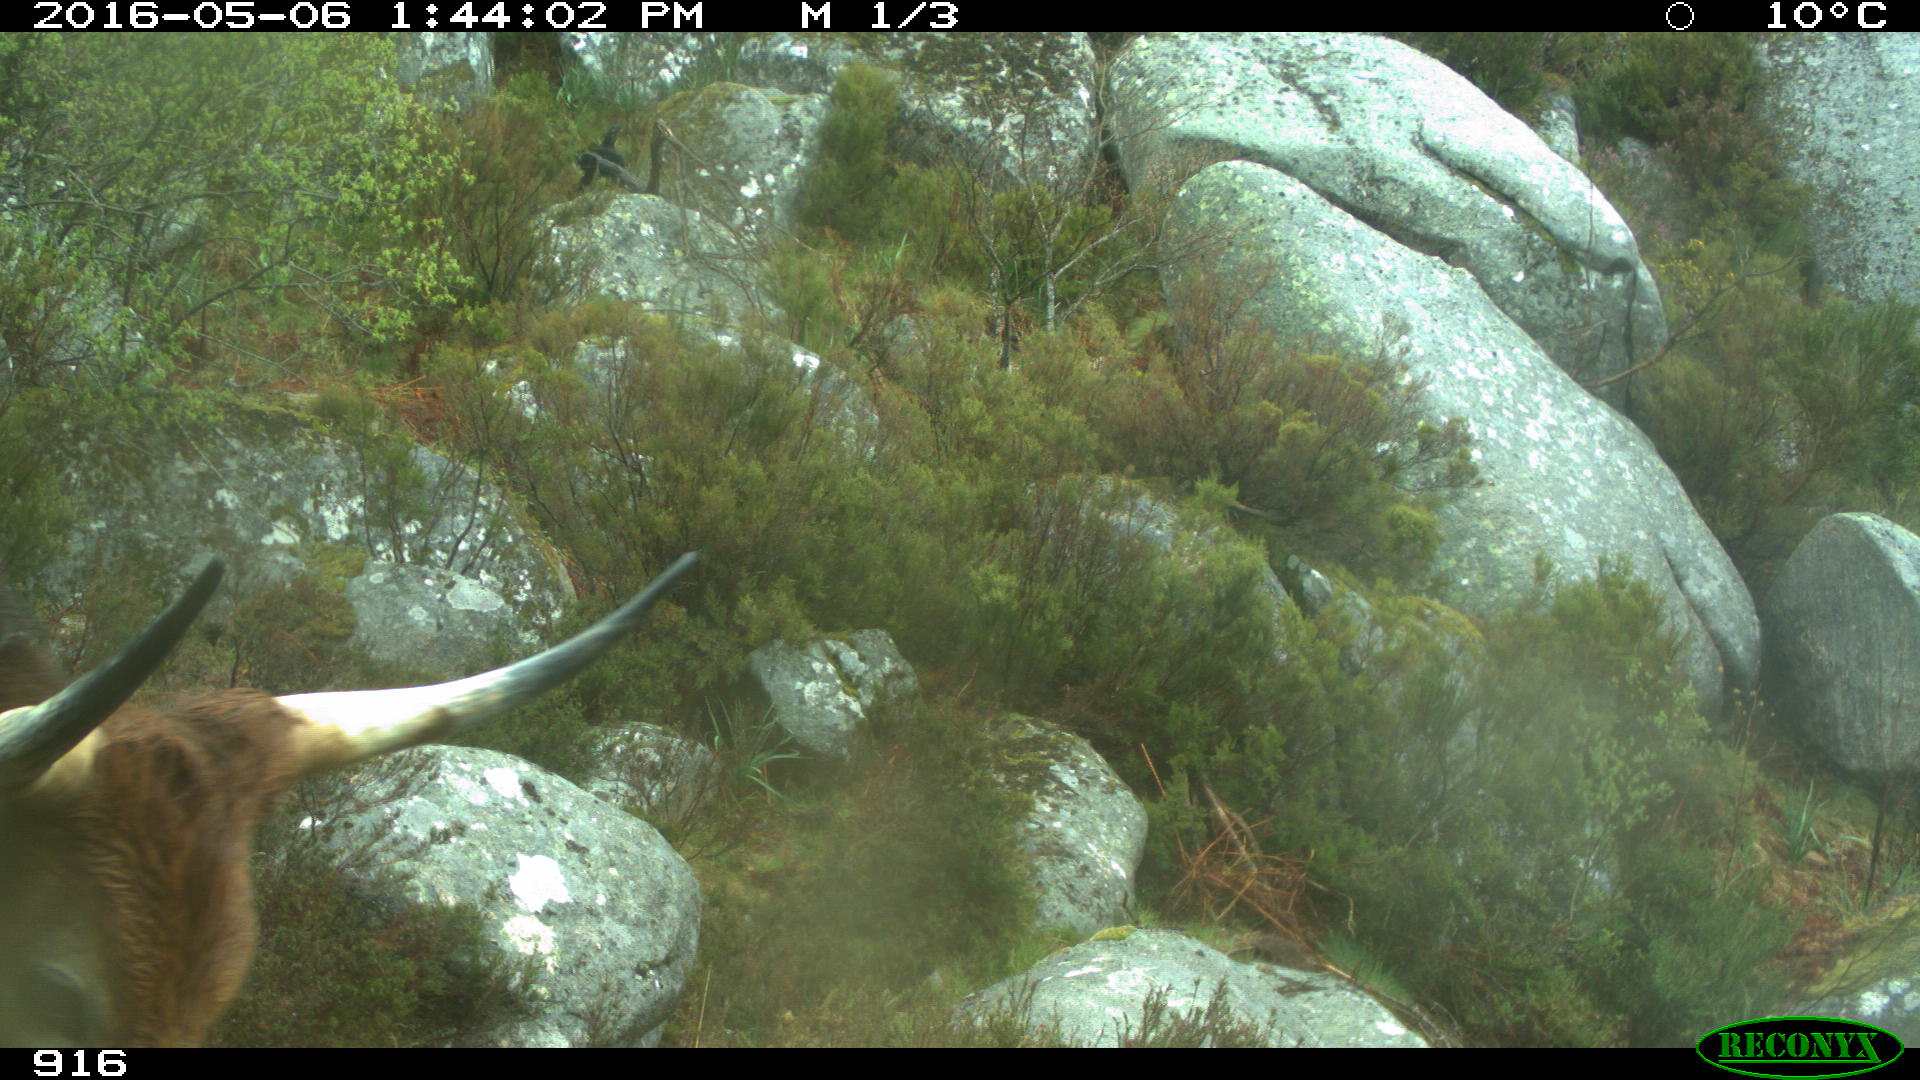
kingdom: Animalia
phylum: Chordata
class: Mammalia
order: Artiodactyla
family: Bovidae
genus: Bos
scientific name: Bos taurus
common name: Domesticated cattle
